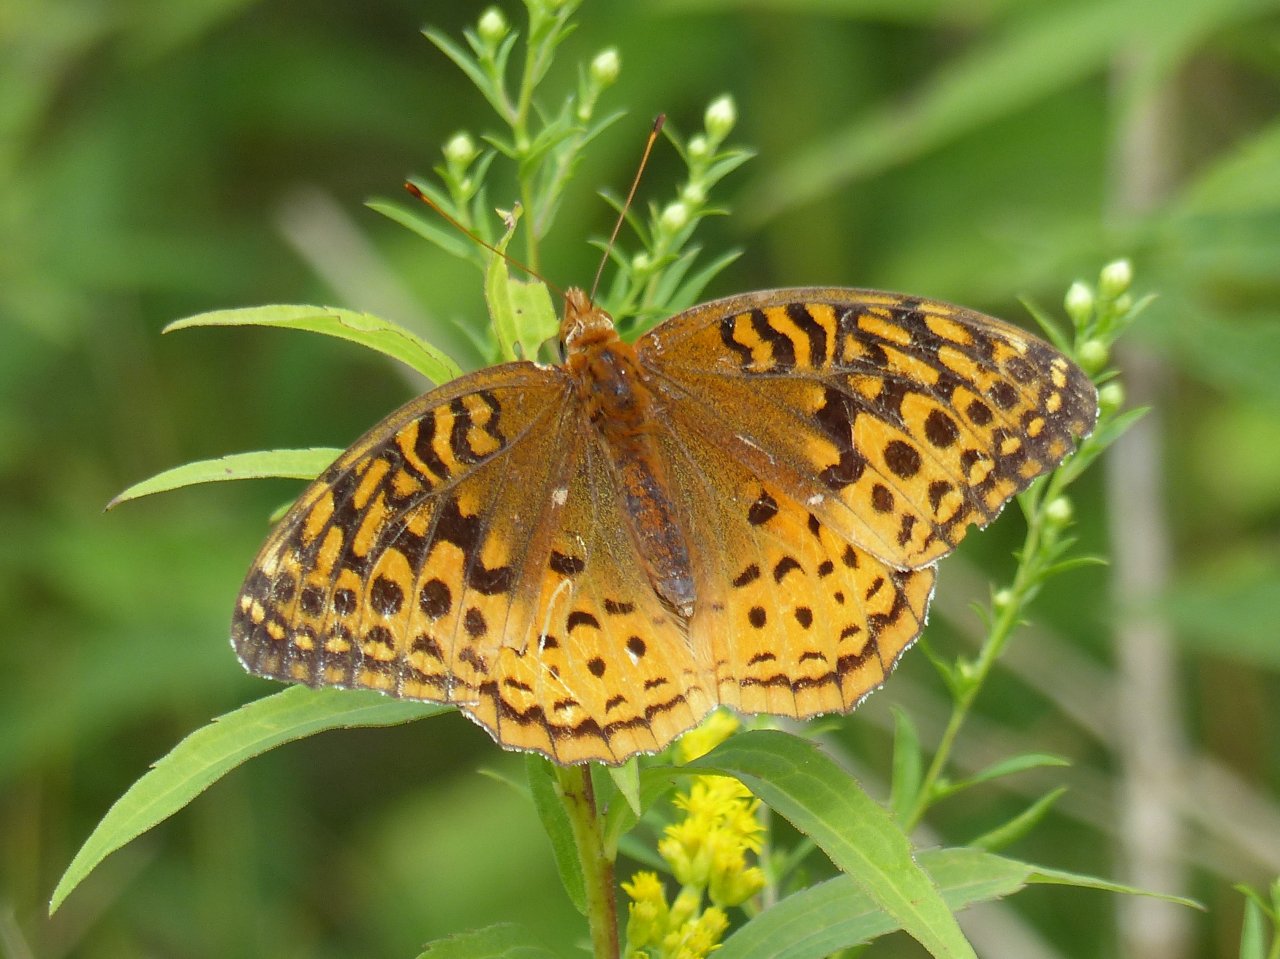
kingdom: Animalia
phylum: Arthropoda
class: Insecta
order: Lepidoptera
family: Nymphalidae
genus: Speyeria
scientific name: Speyeria cybele
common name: Great Spangled Fritillary
